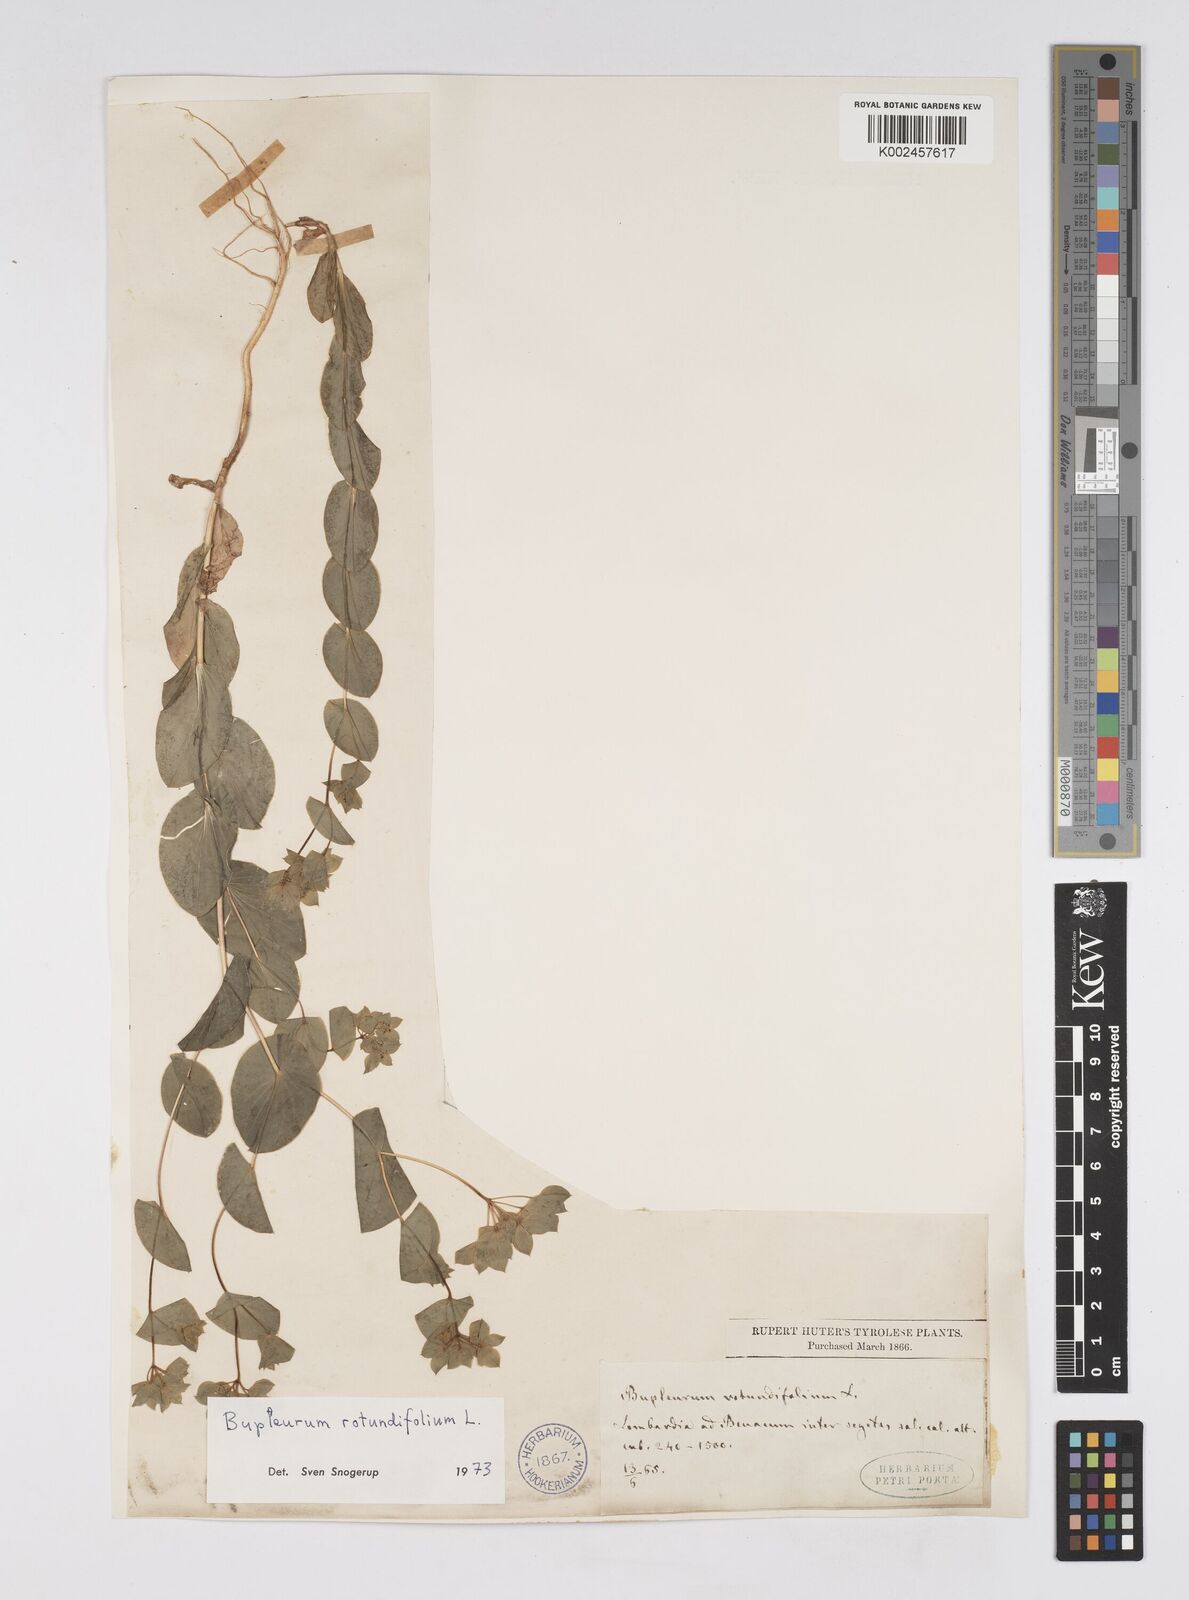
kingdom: Plantae
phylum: Tracheophyta
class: Magnoliopsida
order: Apiales
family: Apiaceae
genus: Bupleurum
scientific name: Bupleurum rotundifolium
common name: Thorow-wax
